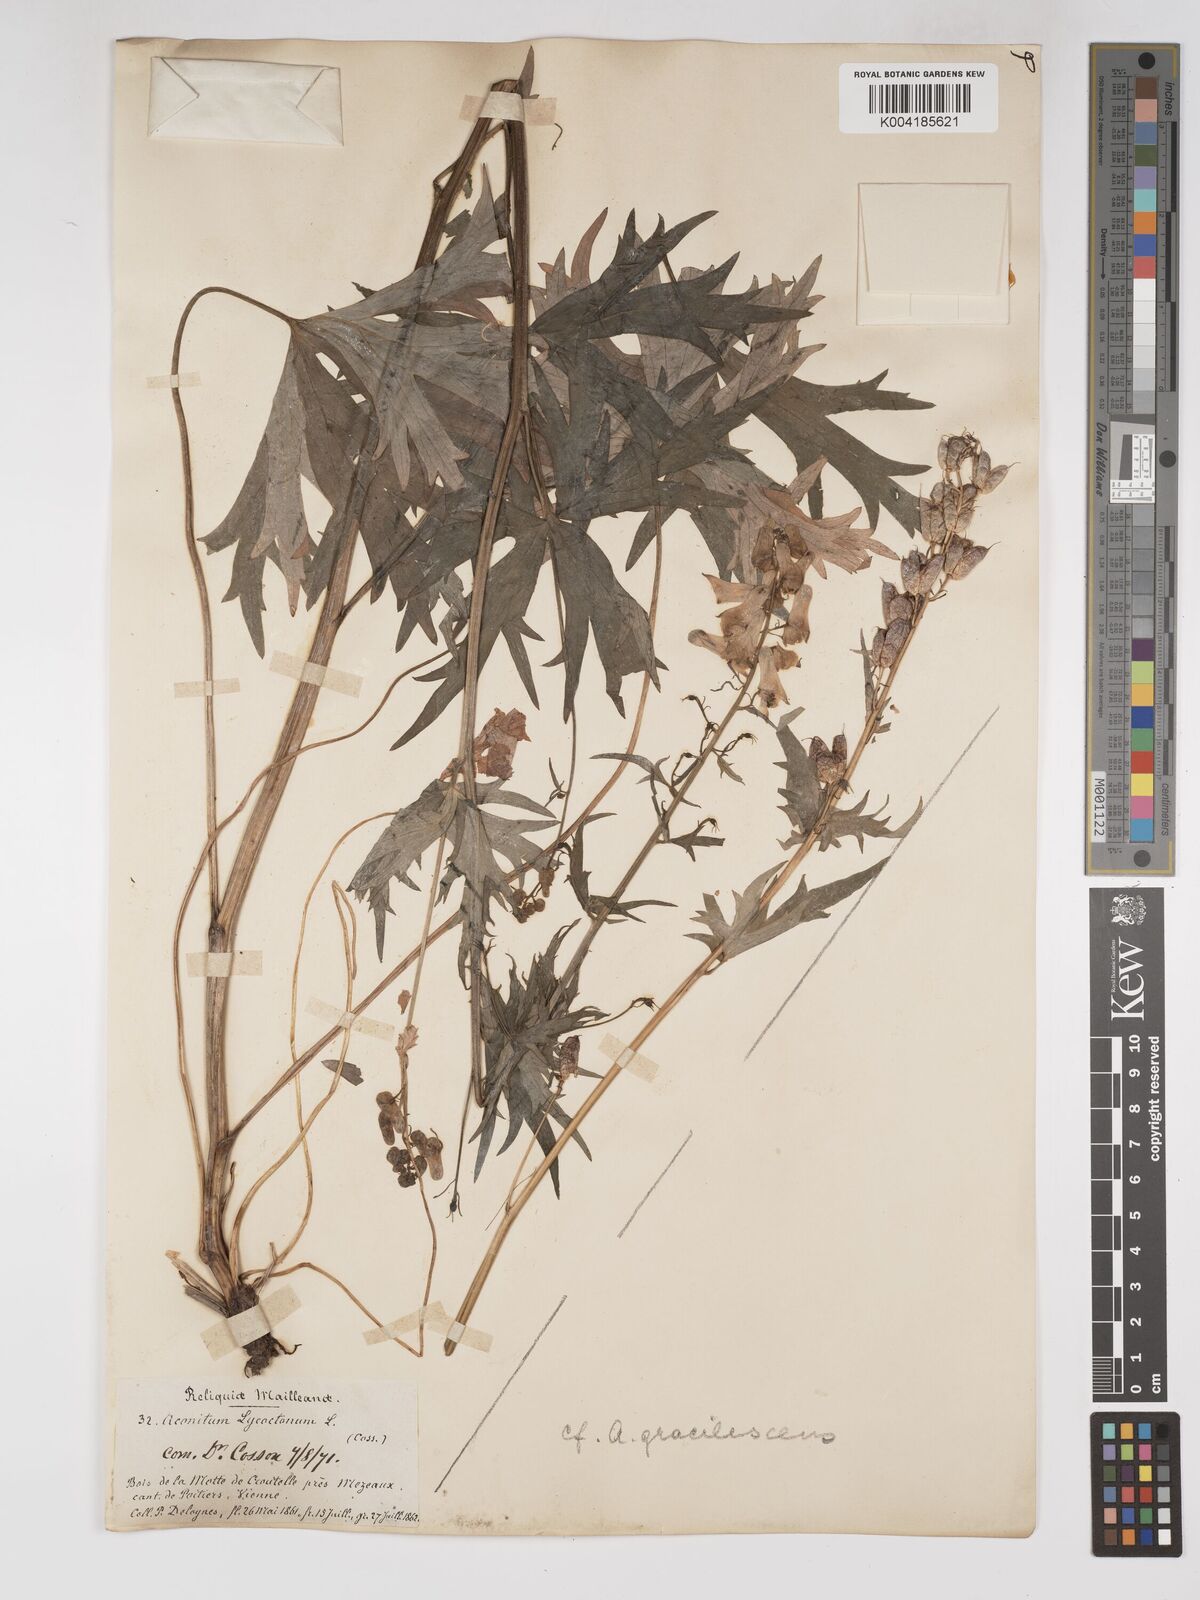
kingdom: Plantae
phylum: Tracheophyta
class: Magnoliopsida
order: Ranunculales
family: Ranunculaceae
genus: Aconitum
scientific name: Aconitum lycoctonum
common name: Wolf's-bane
